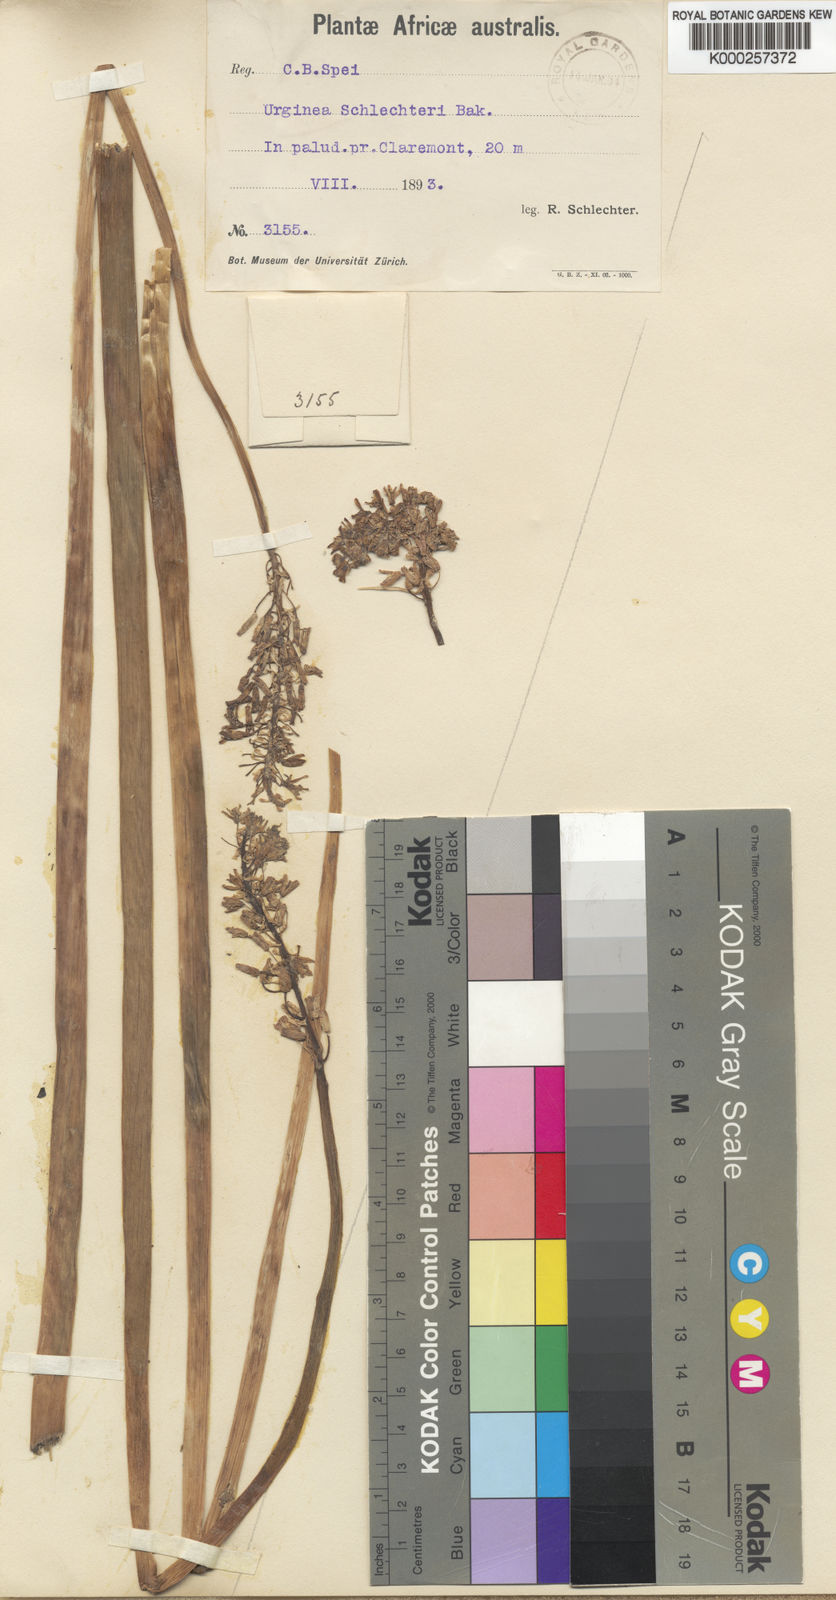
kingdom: Plantae
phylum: Tracheophyta
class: Liliopsida
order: Asparagales
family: Asparagaceae
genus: Drimia
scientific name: Drimia macrocentra
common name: Natal slangkop
